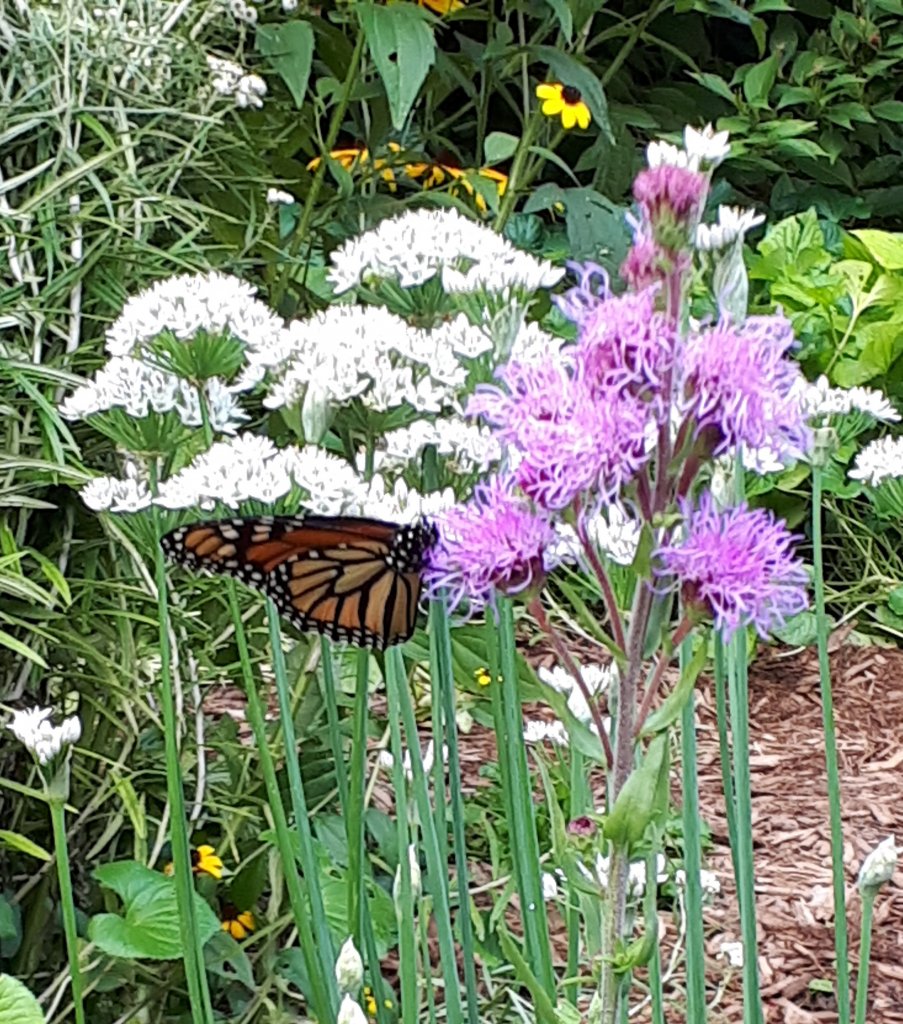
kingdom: Animalia
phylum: Arthropoda
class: Insecta
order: Lepidoptera
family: Nymphalidae
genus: Danaus
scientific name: Danaus plexippus
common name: Monarch
